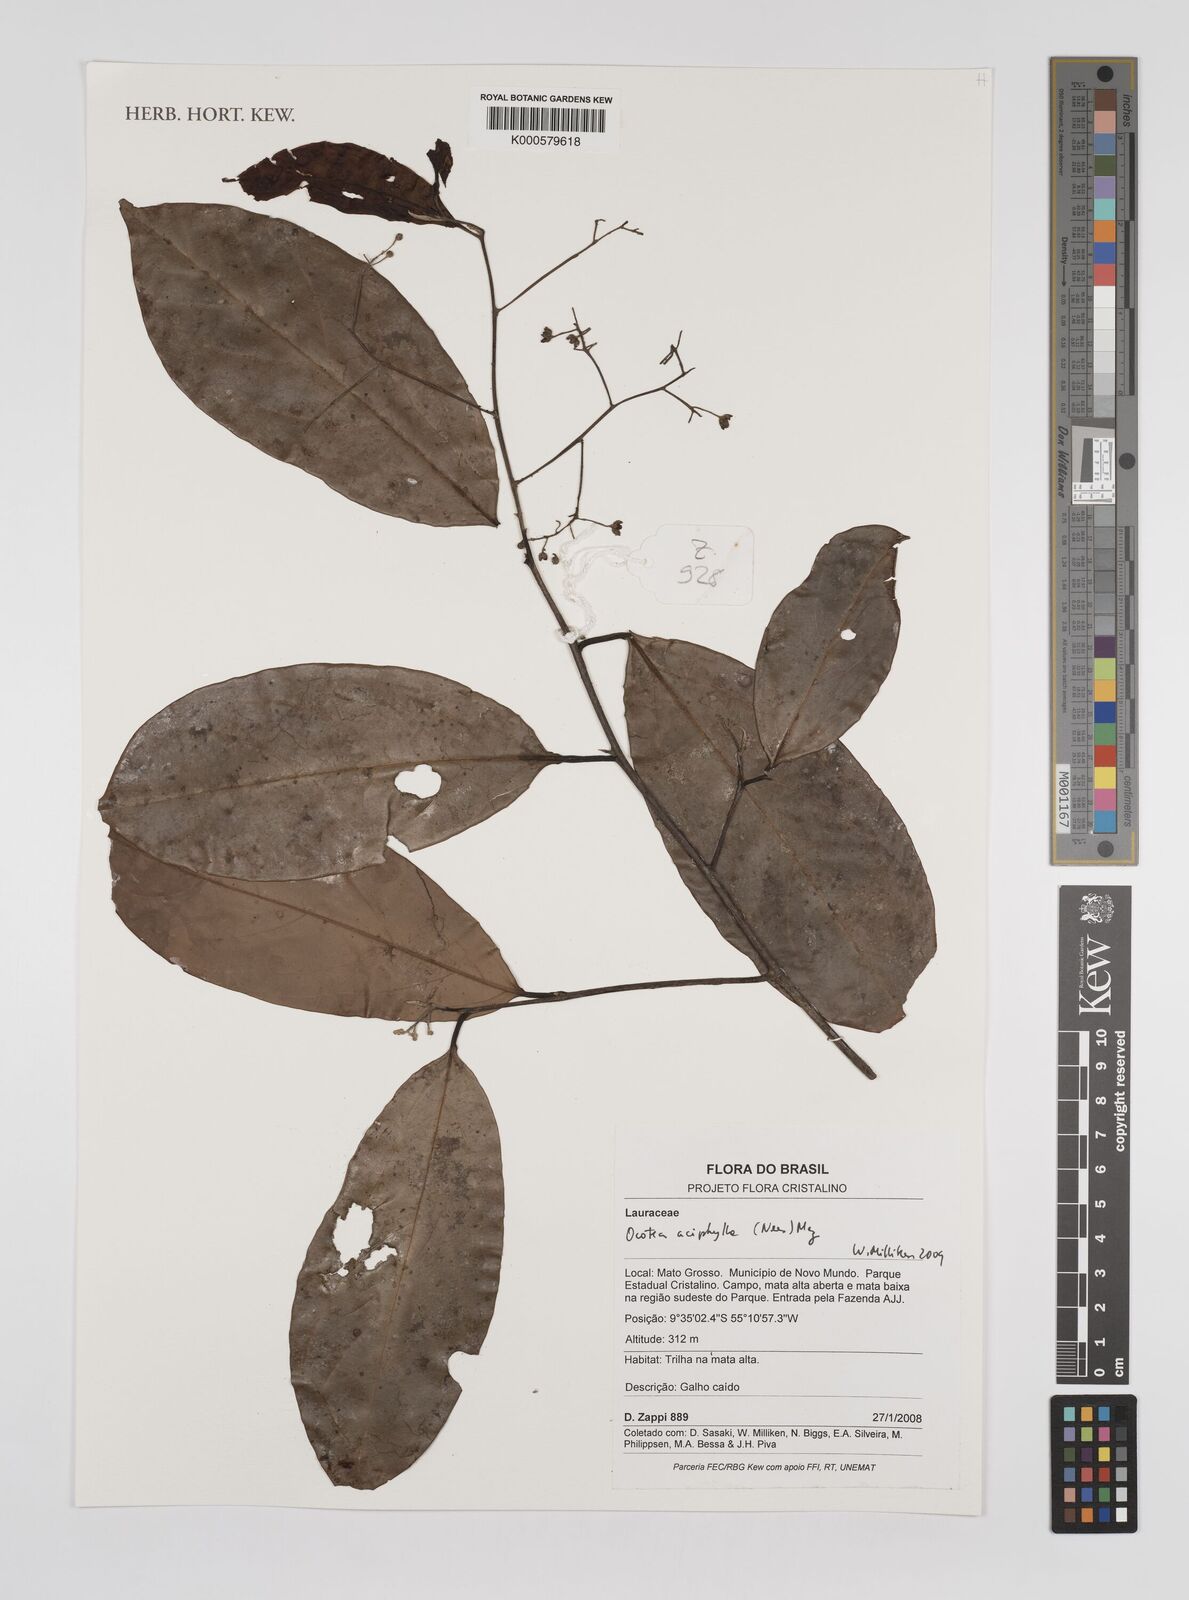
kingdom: Plantae
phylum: Tracheophyta
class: Magnoliopsida
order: Laurales
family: Lauraceae
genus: Ocotea
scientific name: Ocotea aciphylla
